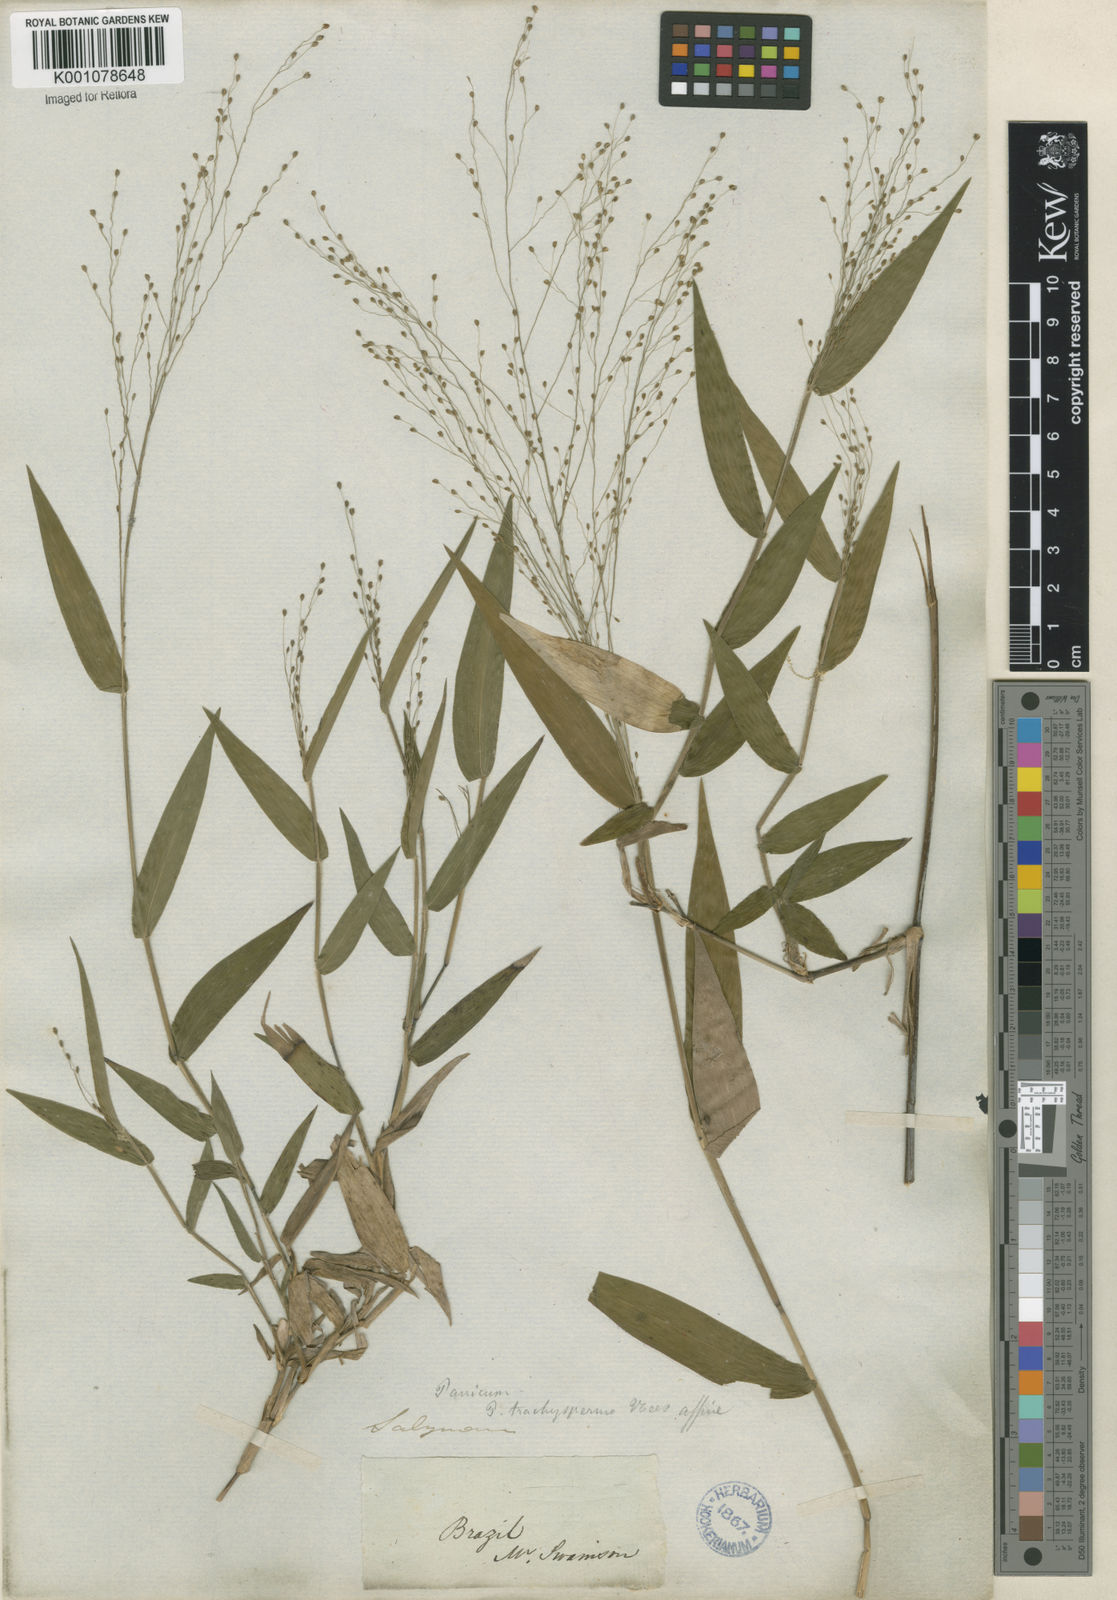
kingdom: Plantae
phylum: Tracheophyta
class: Liliopsida
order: Poales
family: Poaceae
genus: Panicum
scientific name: Panicum millegrana
